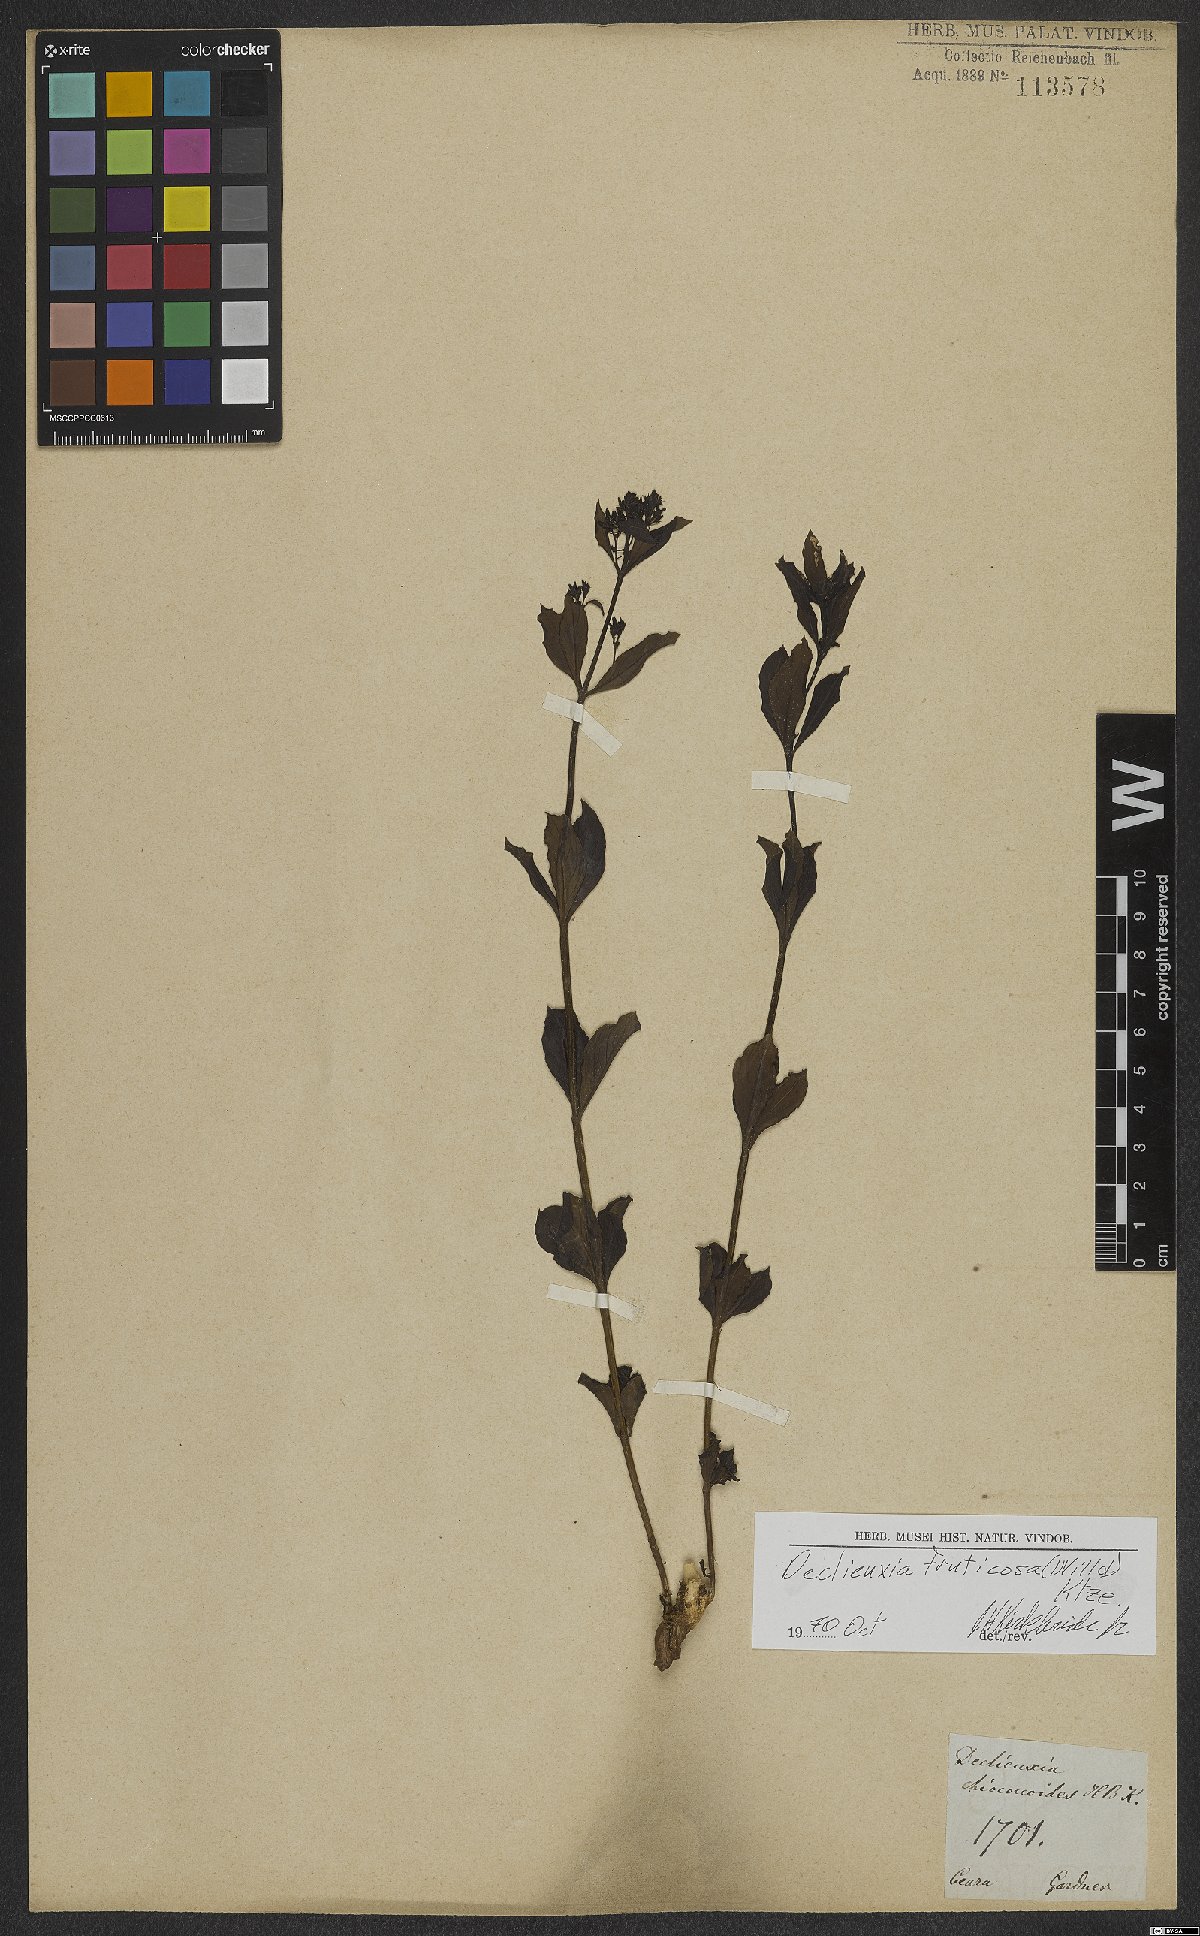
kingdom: Plantae
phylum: Tracheophyta
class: Magnoliopsida
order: Gentianales
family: Rubiaceae
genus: Declieuxia
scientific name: Declieuxia fruticosa
